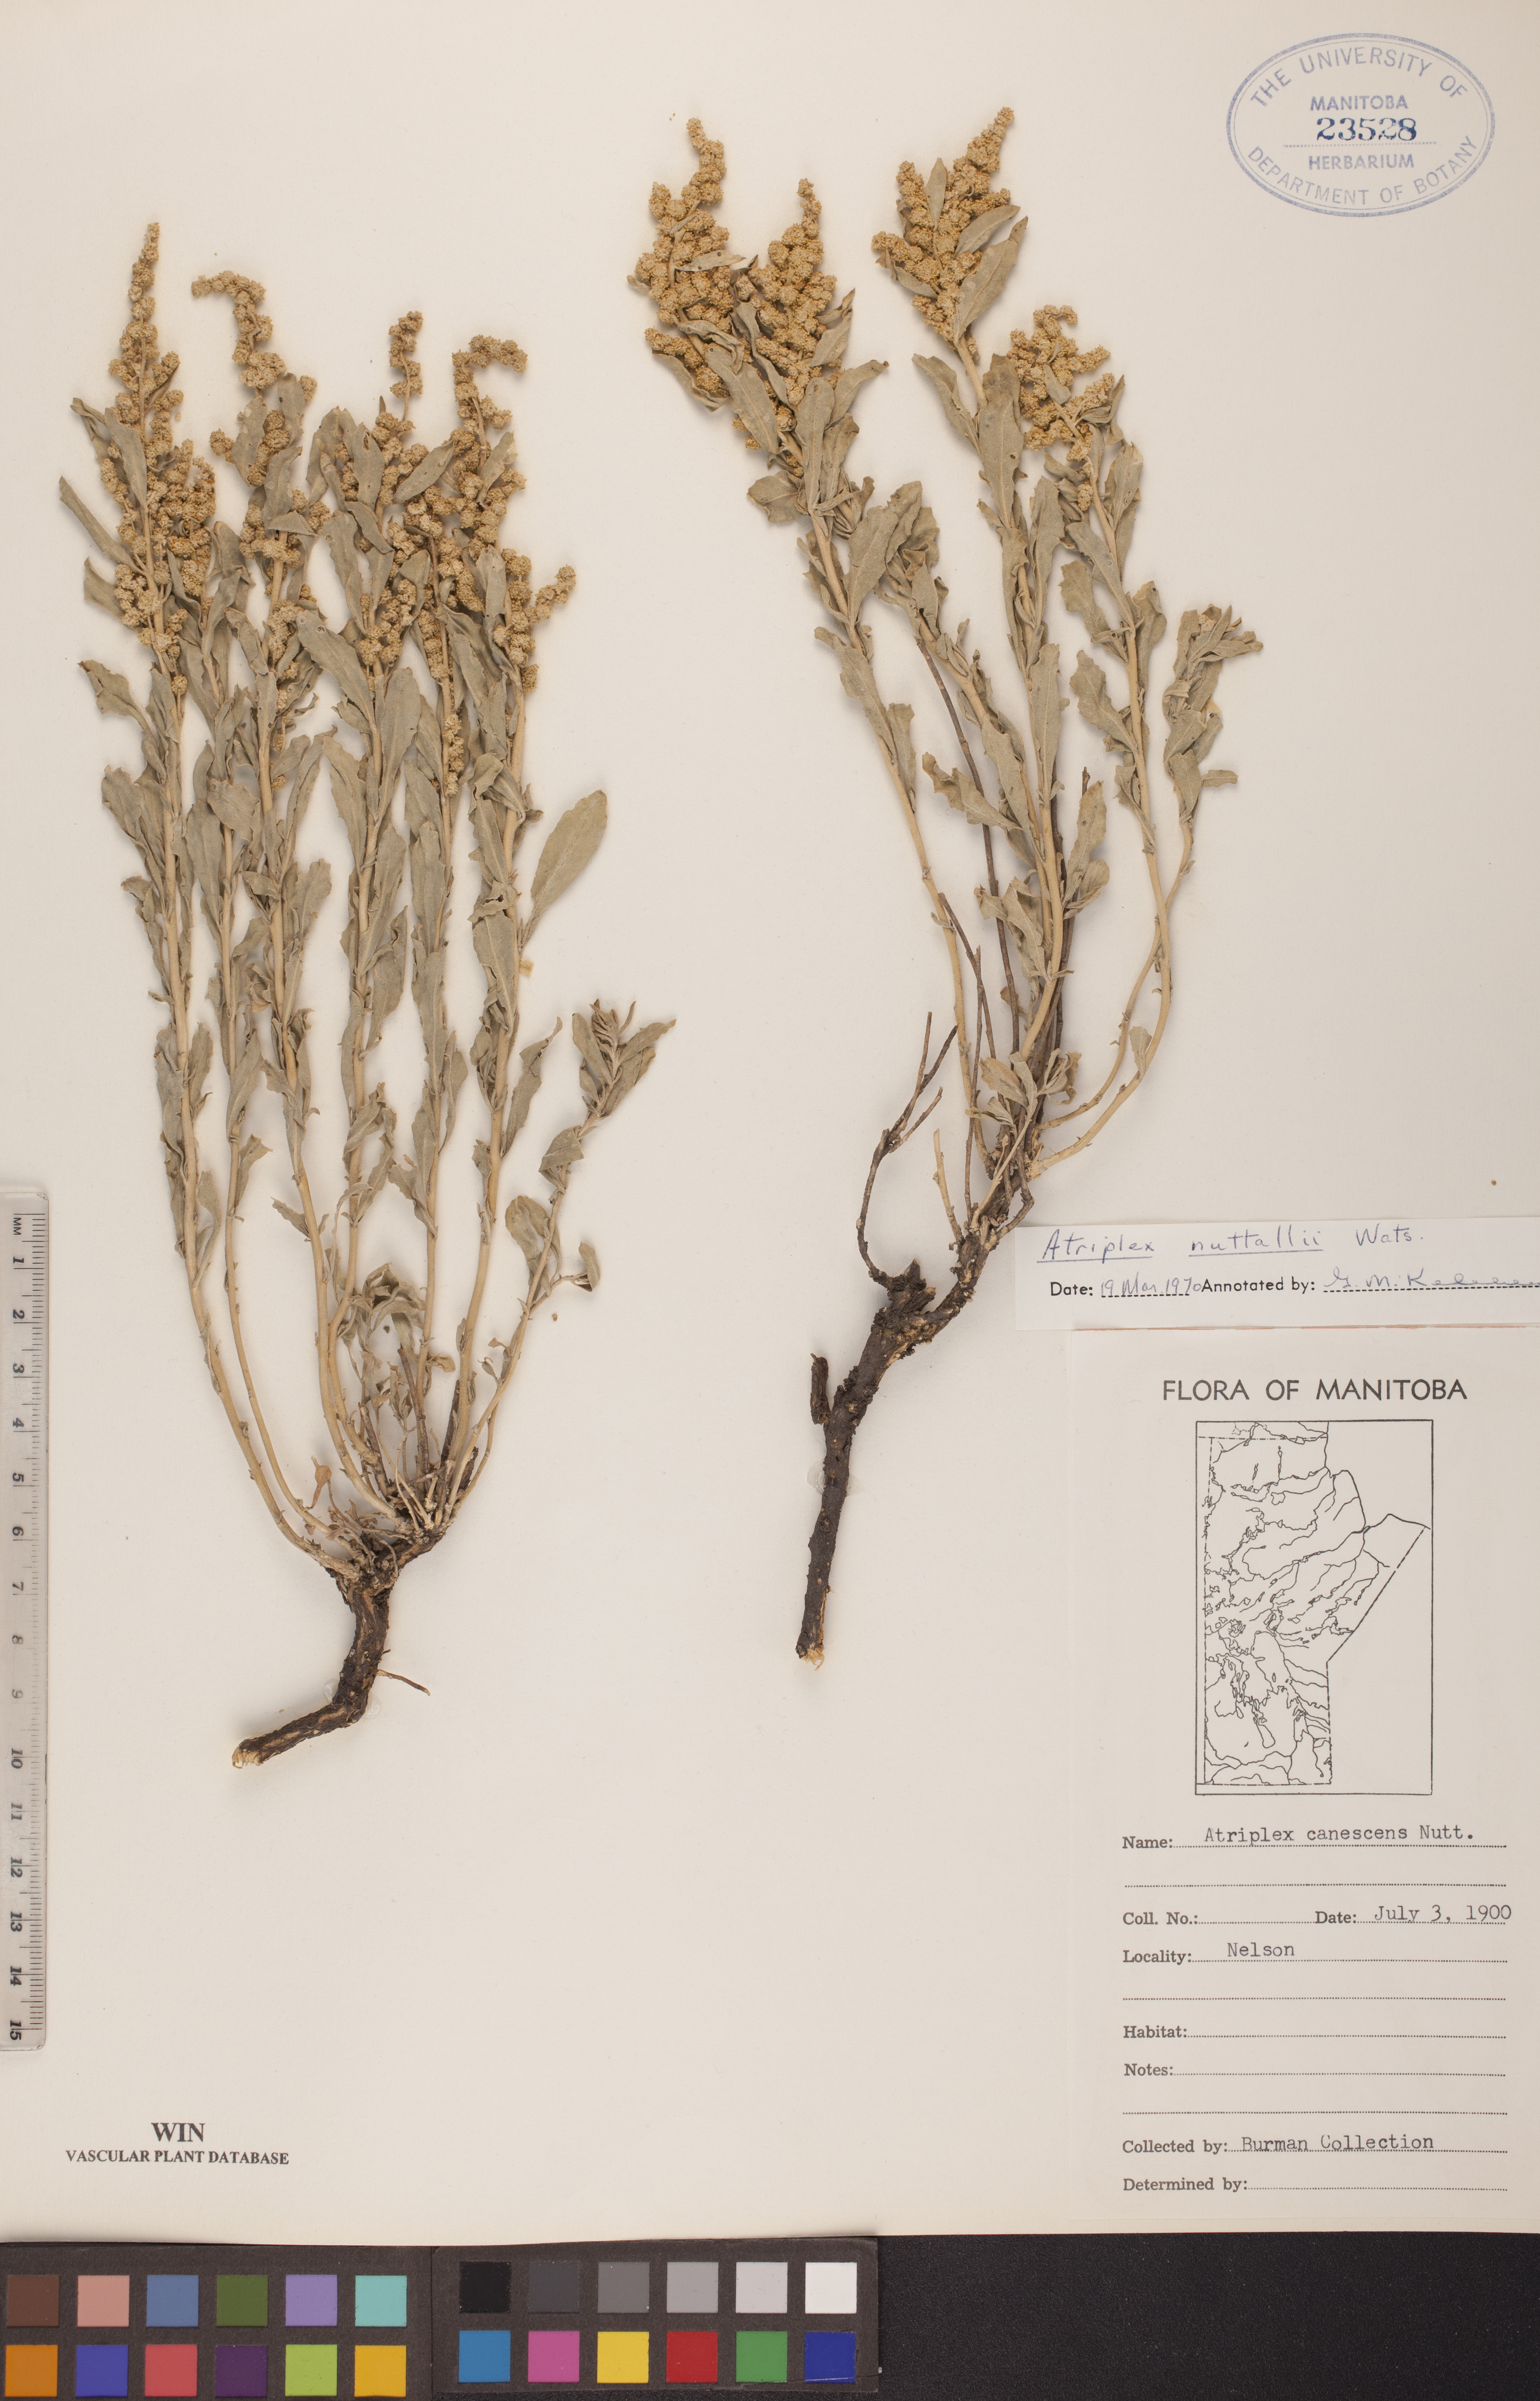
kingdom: Plantae
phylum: Tracheophyta
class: Magnoliopsida
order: Caryophyllales
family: Amaranthaceae
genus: Atriplex
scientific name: Atriplex canescens
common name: Four-wing saltbush
